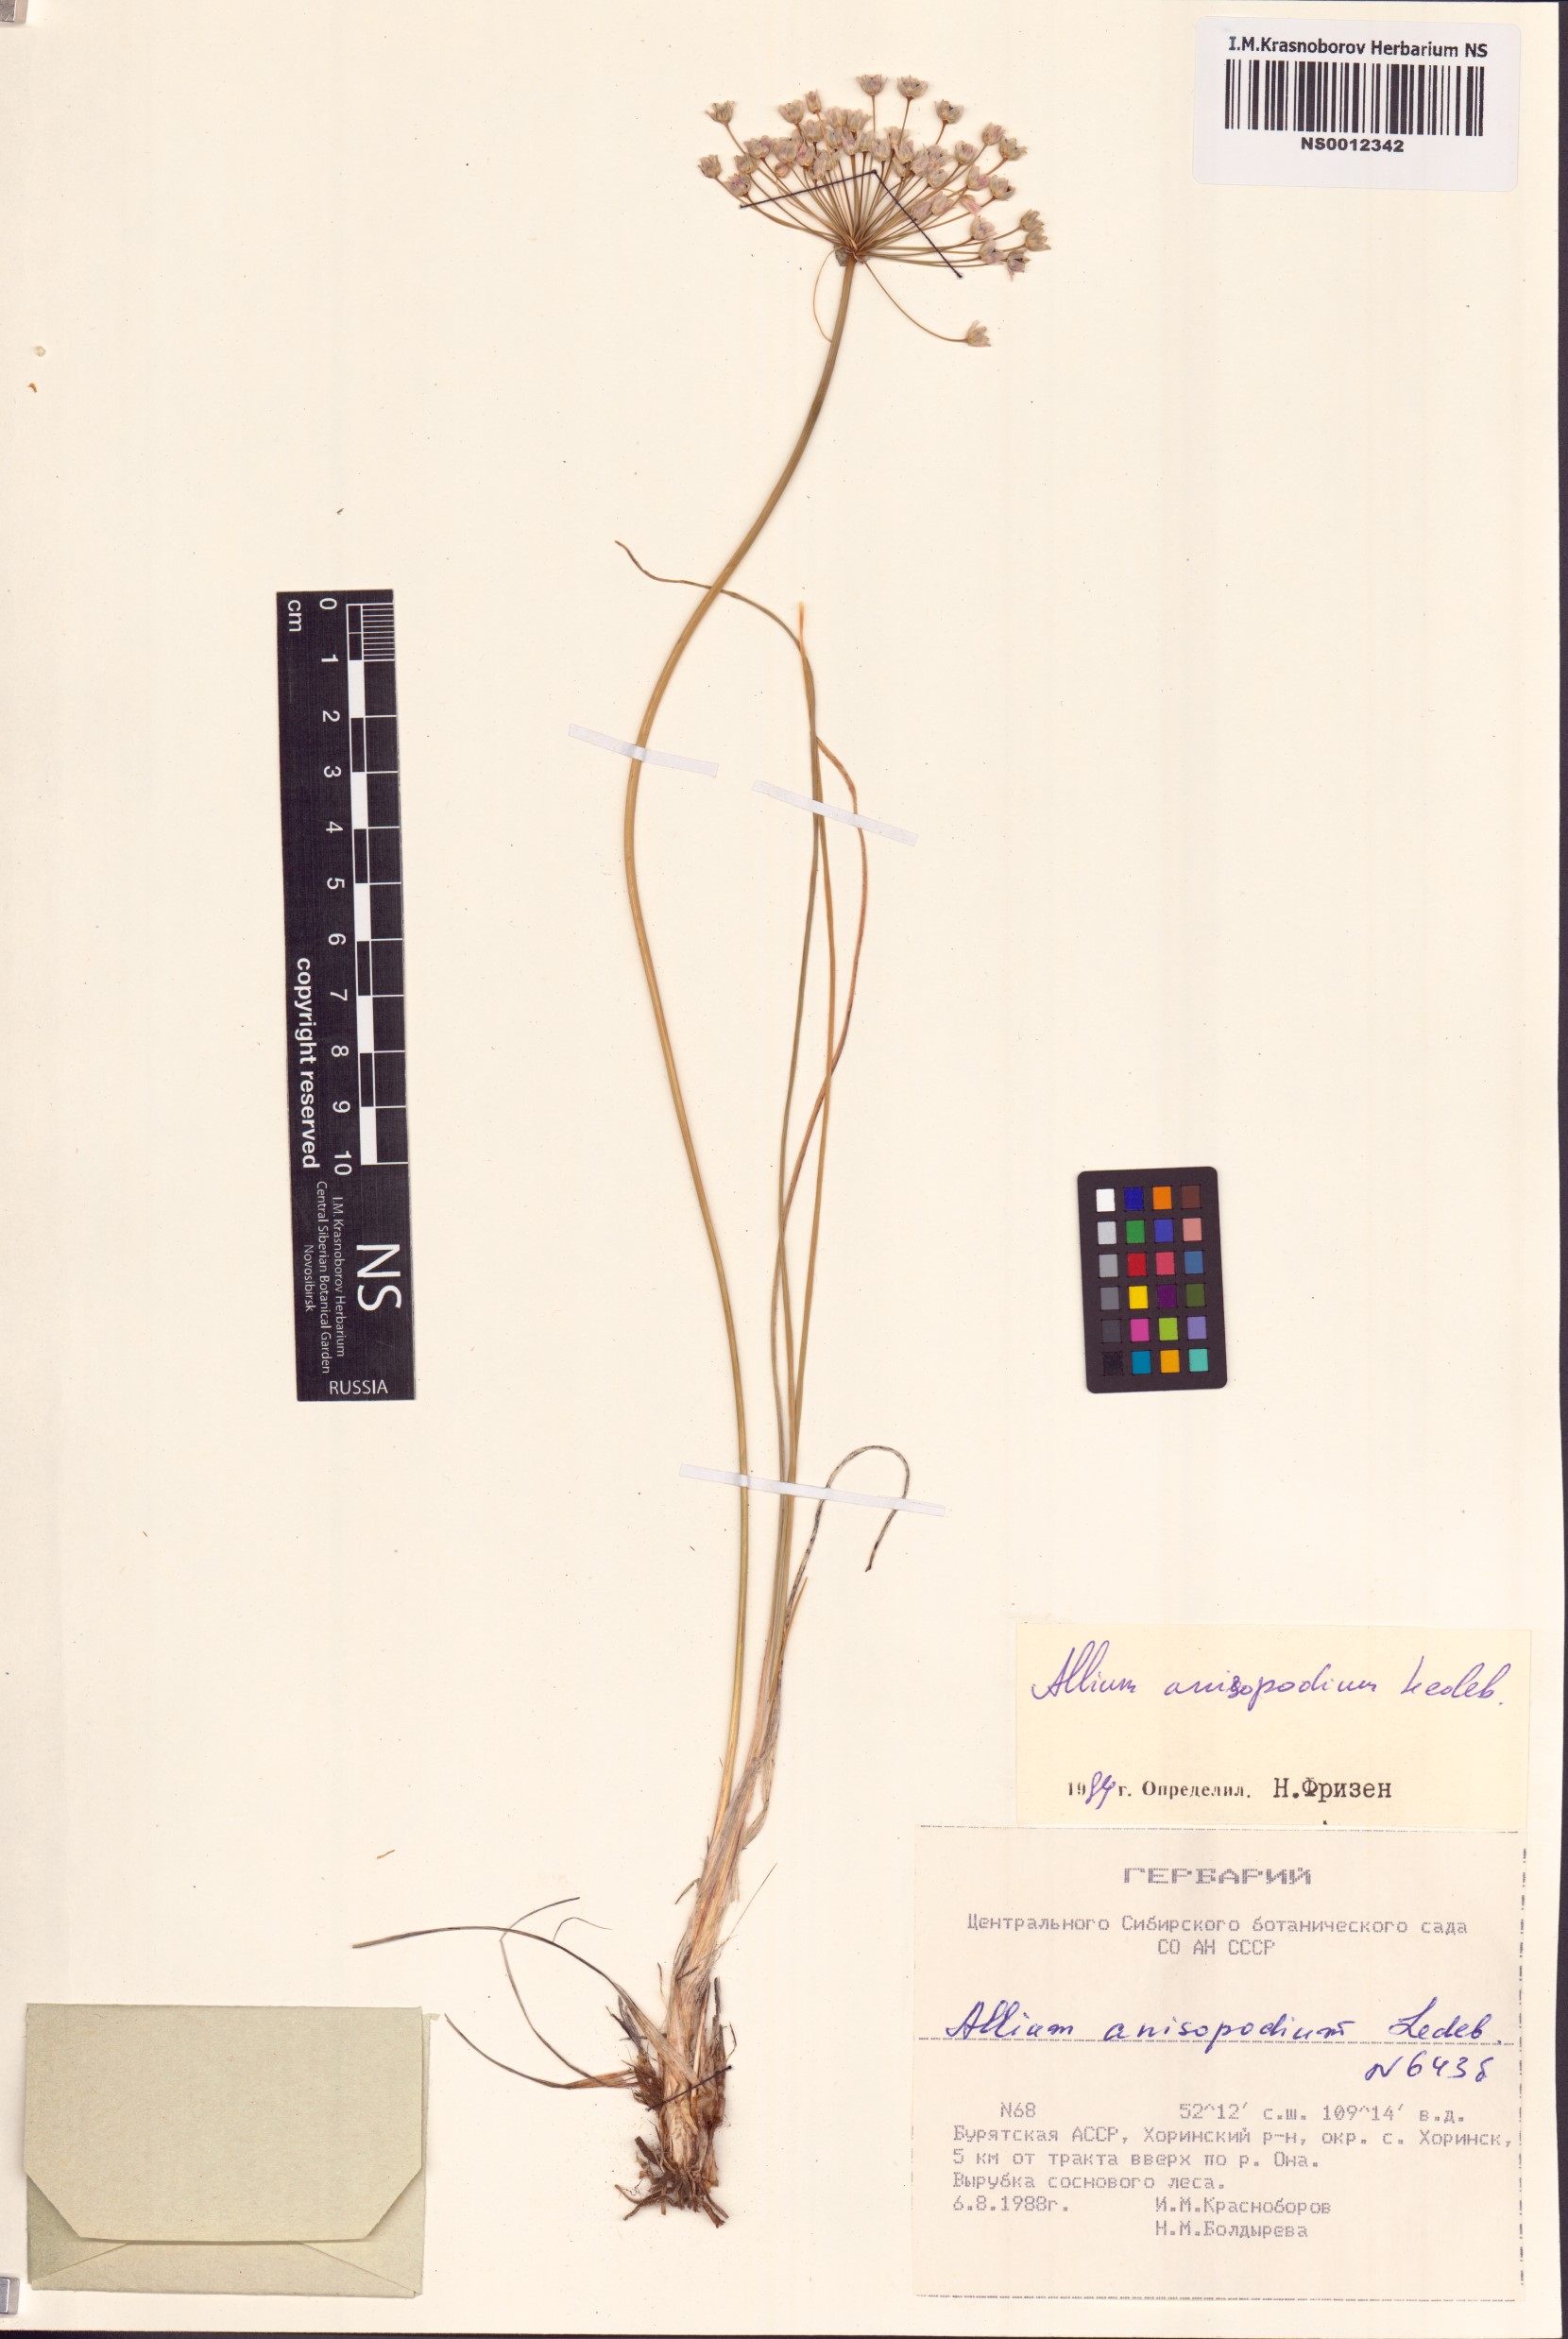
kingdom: Plantae
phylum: Tracheophyta
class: Liliopsida
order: Asparagales
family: Amaryllidaceae
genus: Allium
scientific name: Allium anisopodium
